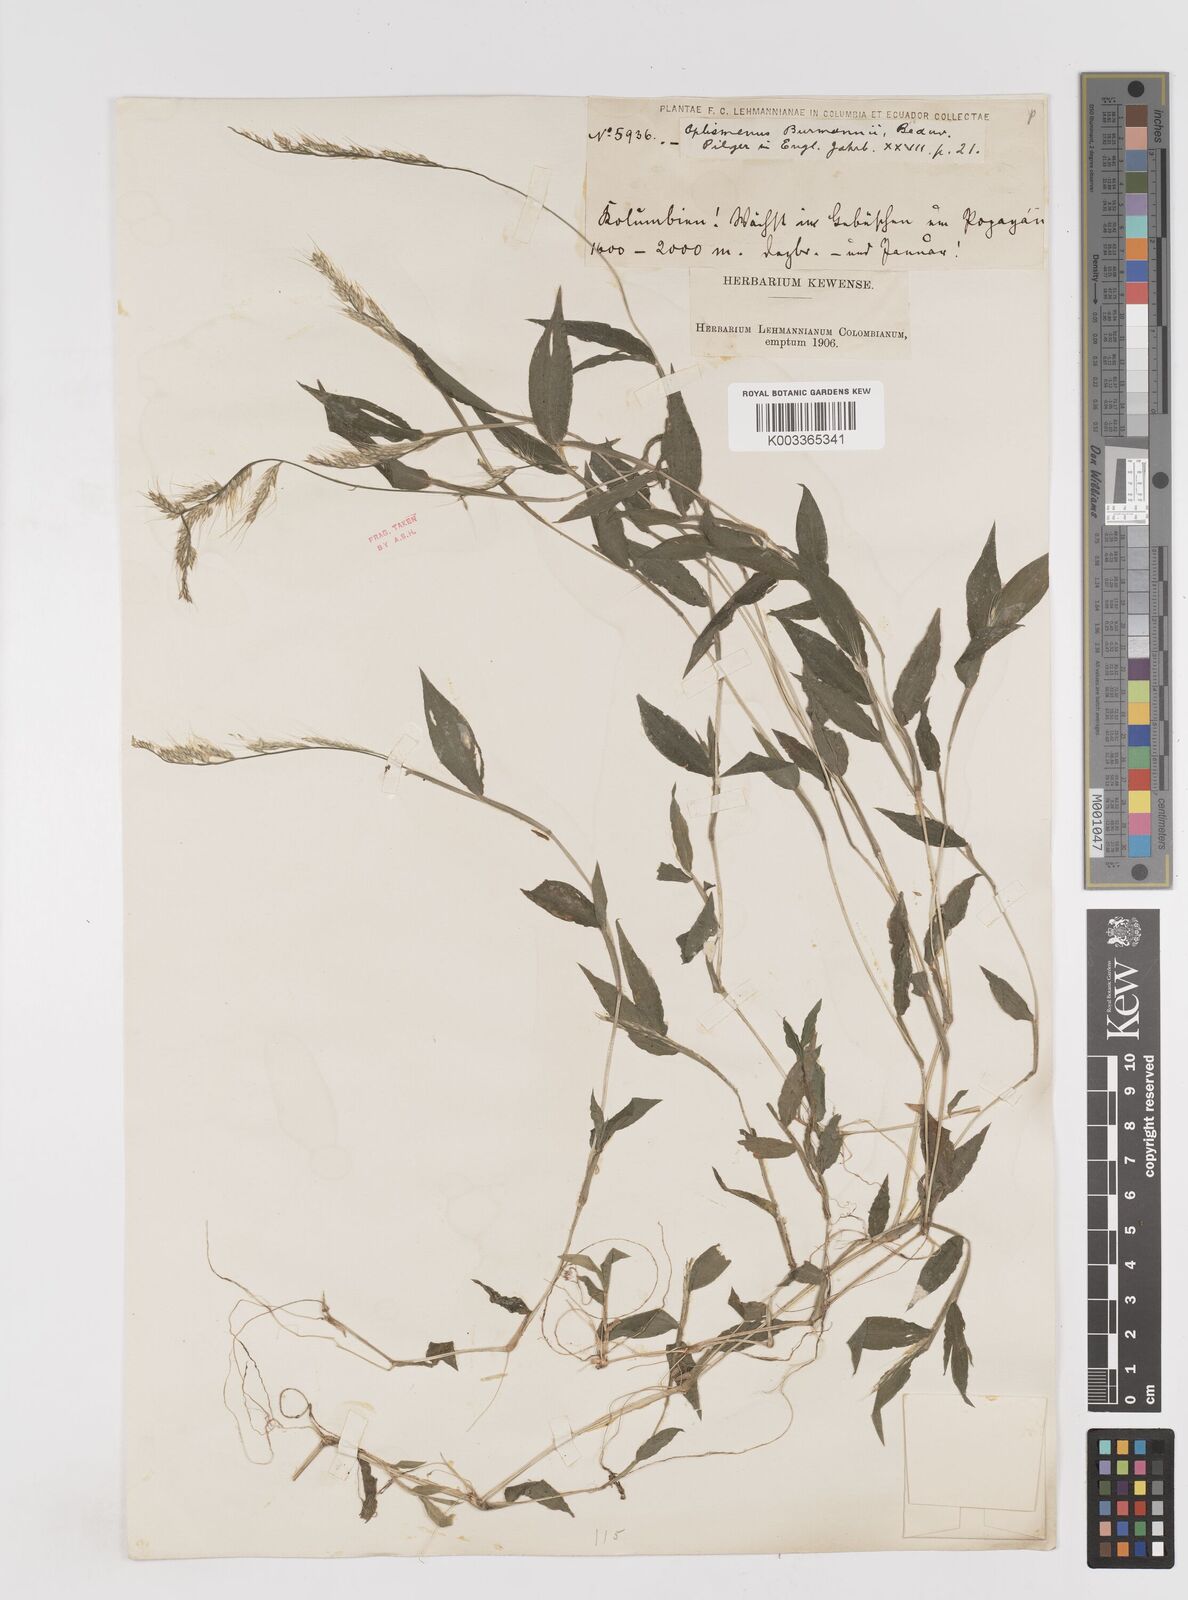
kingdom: Plantae
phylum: Tracheophyta
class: Liliopsida
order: Poales
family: Poaceae
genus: Oplismenus
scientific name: Oplismenus burmanni
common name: Burmann's basketgrass
